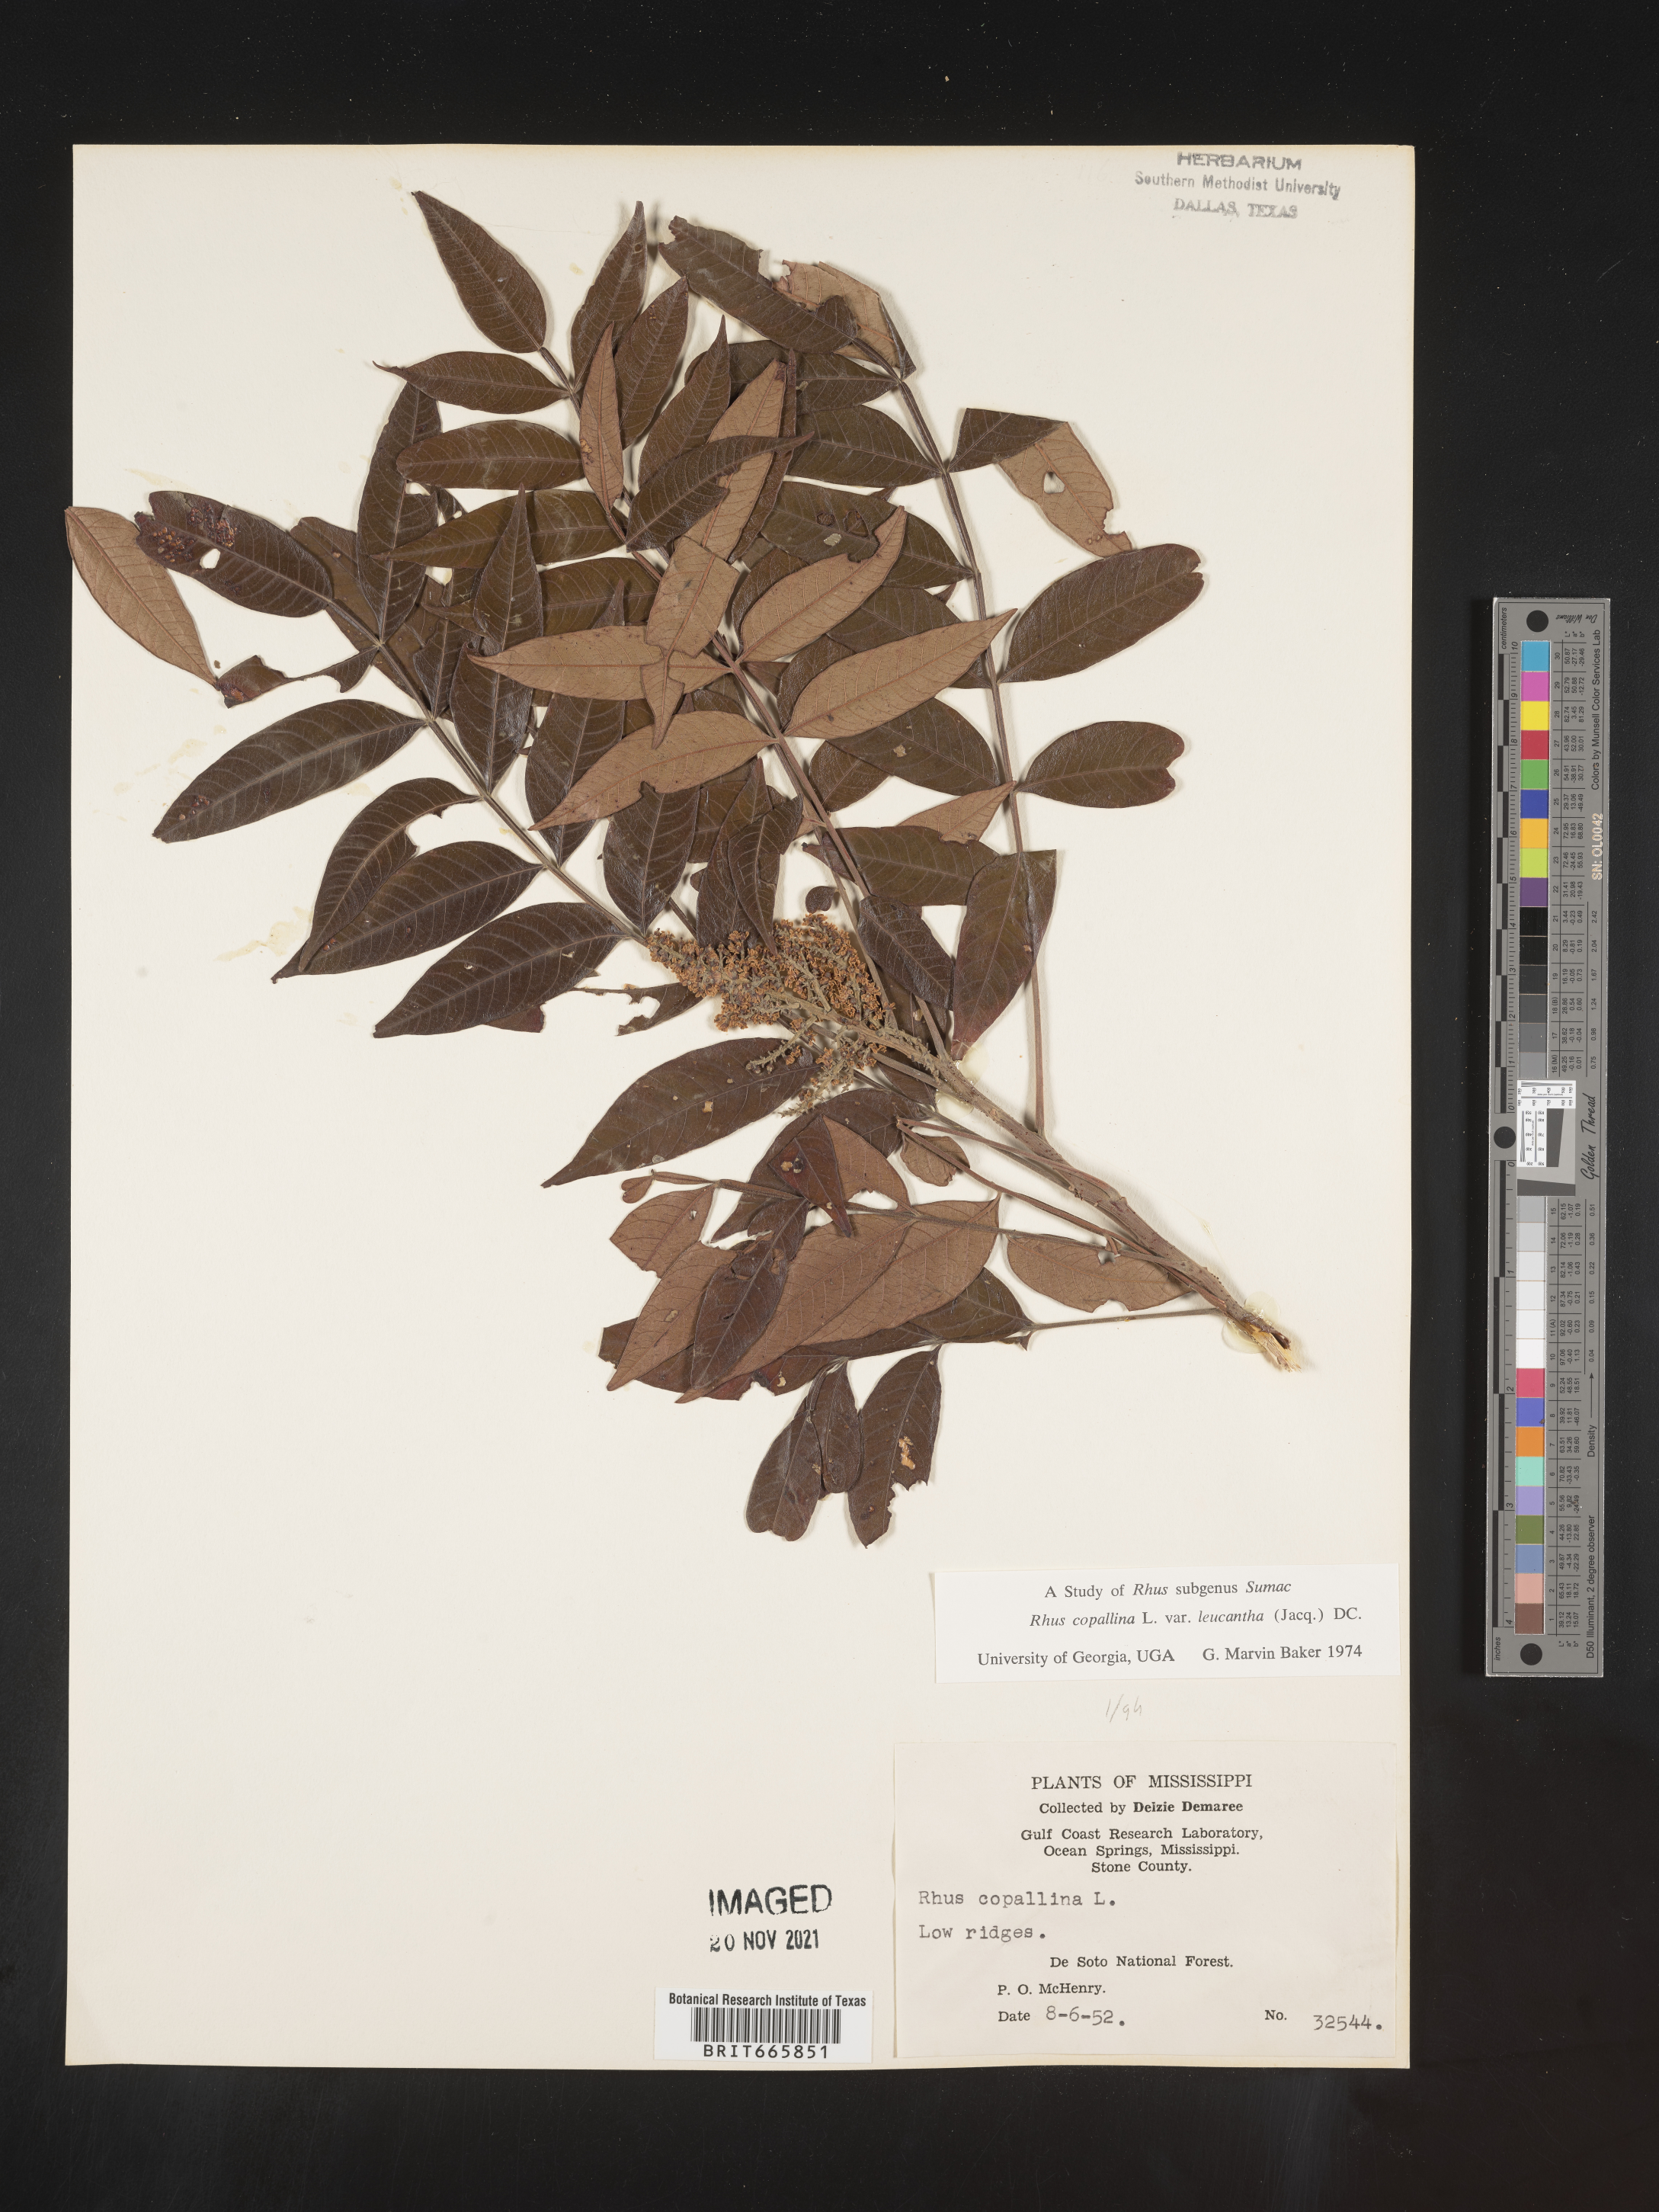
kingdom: Plantae
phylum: Tracheophyta
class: Magnoliopsida
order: Sapindales
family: Anacardiaceae
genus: Rhus
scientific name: Rhus copallina
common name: Shining sumac
